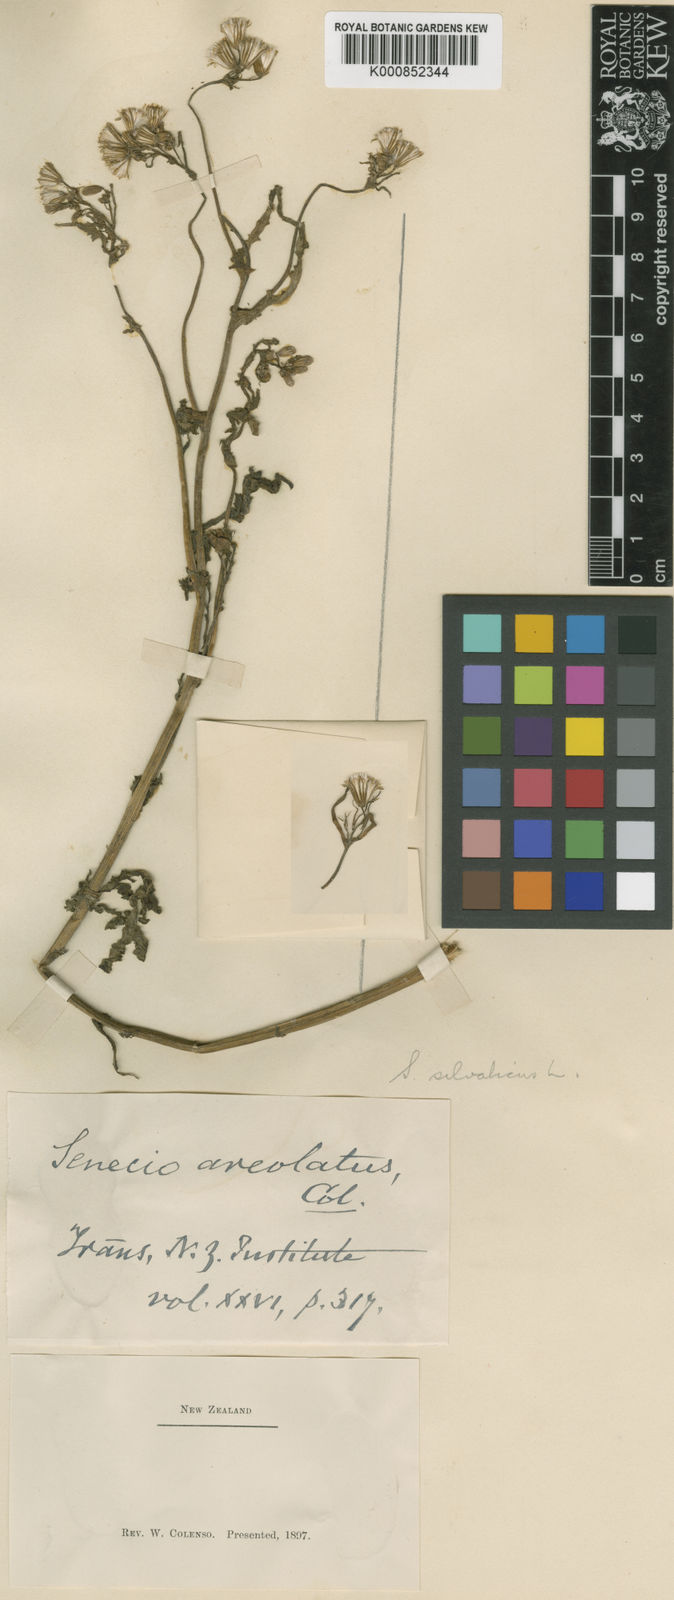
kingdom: Plantae
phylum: Tracheophyta
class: Magnoliopsida
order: Asterales
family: Asteraceae
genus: Senecio
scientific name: Senecio sylvaticus
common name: Woodland ragwort
